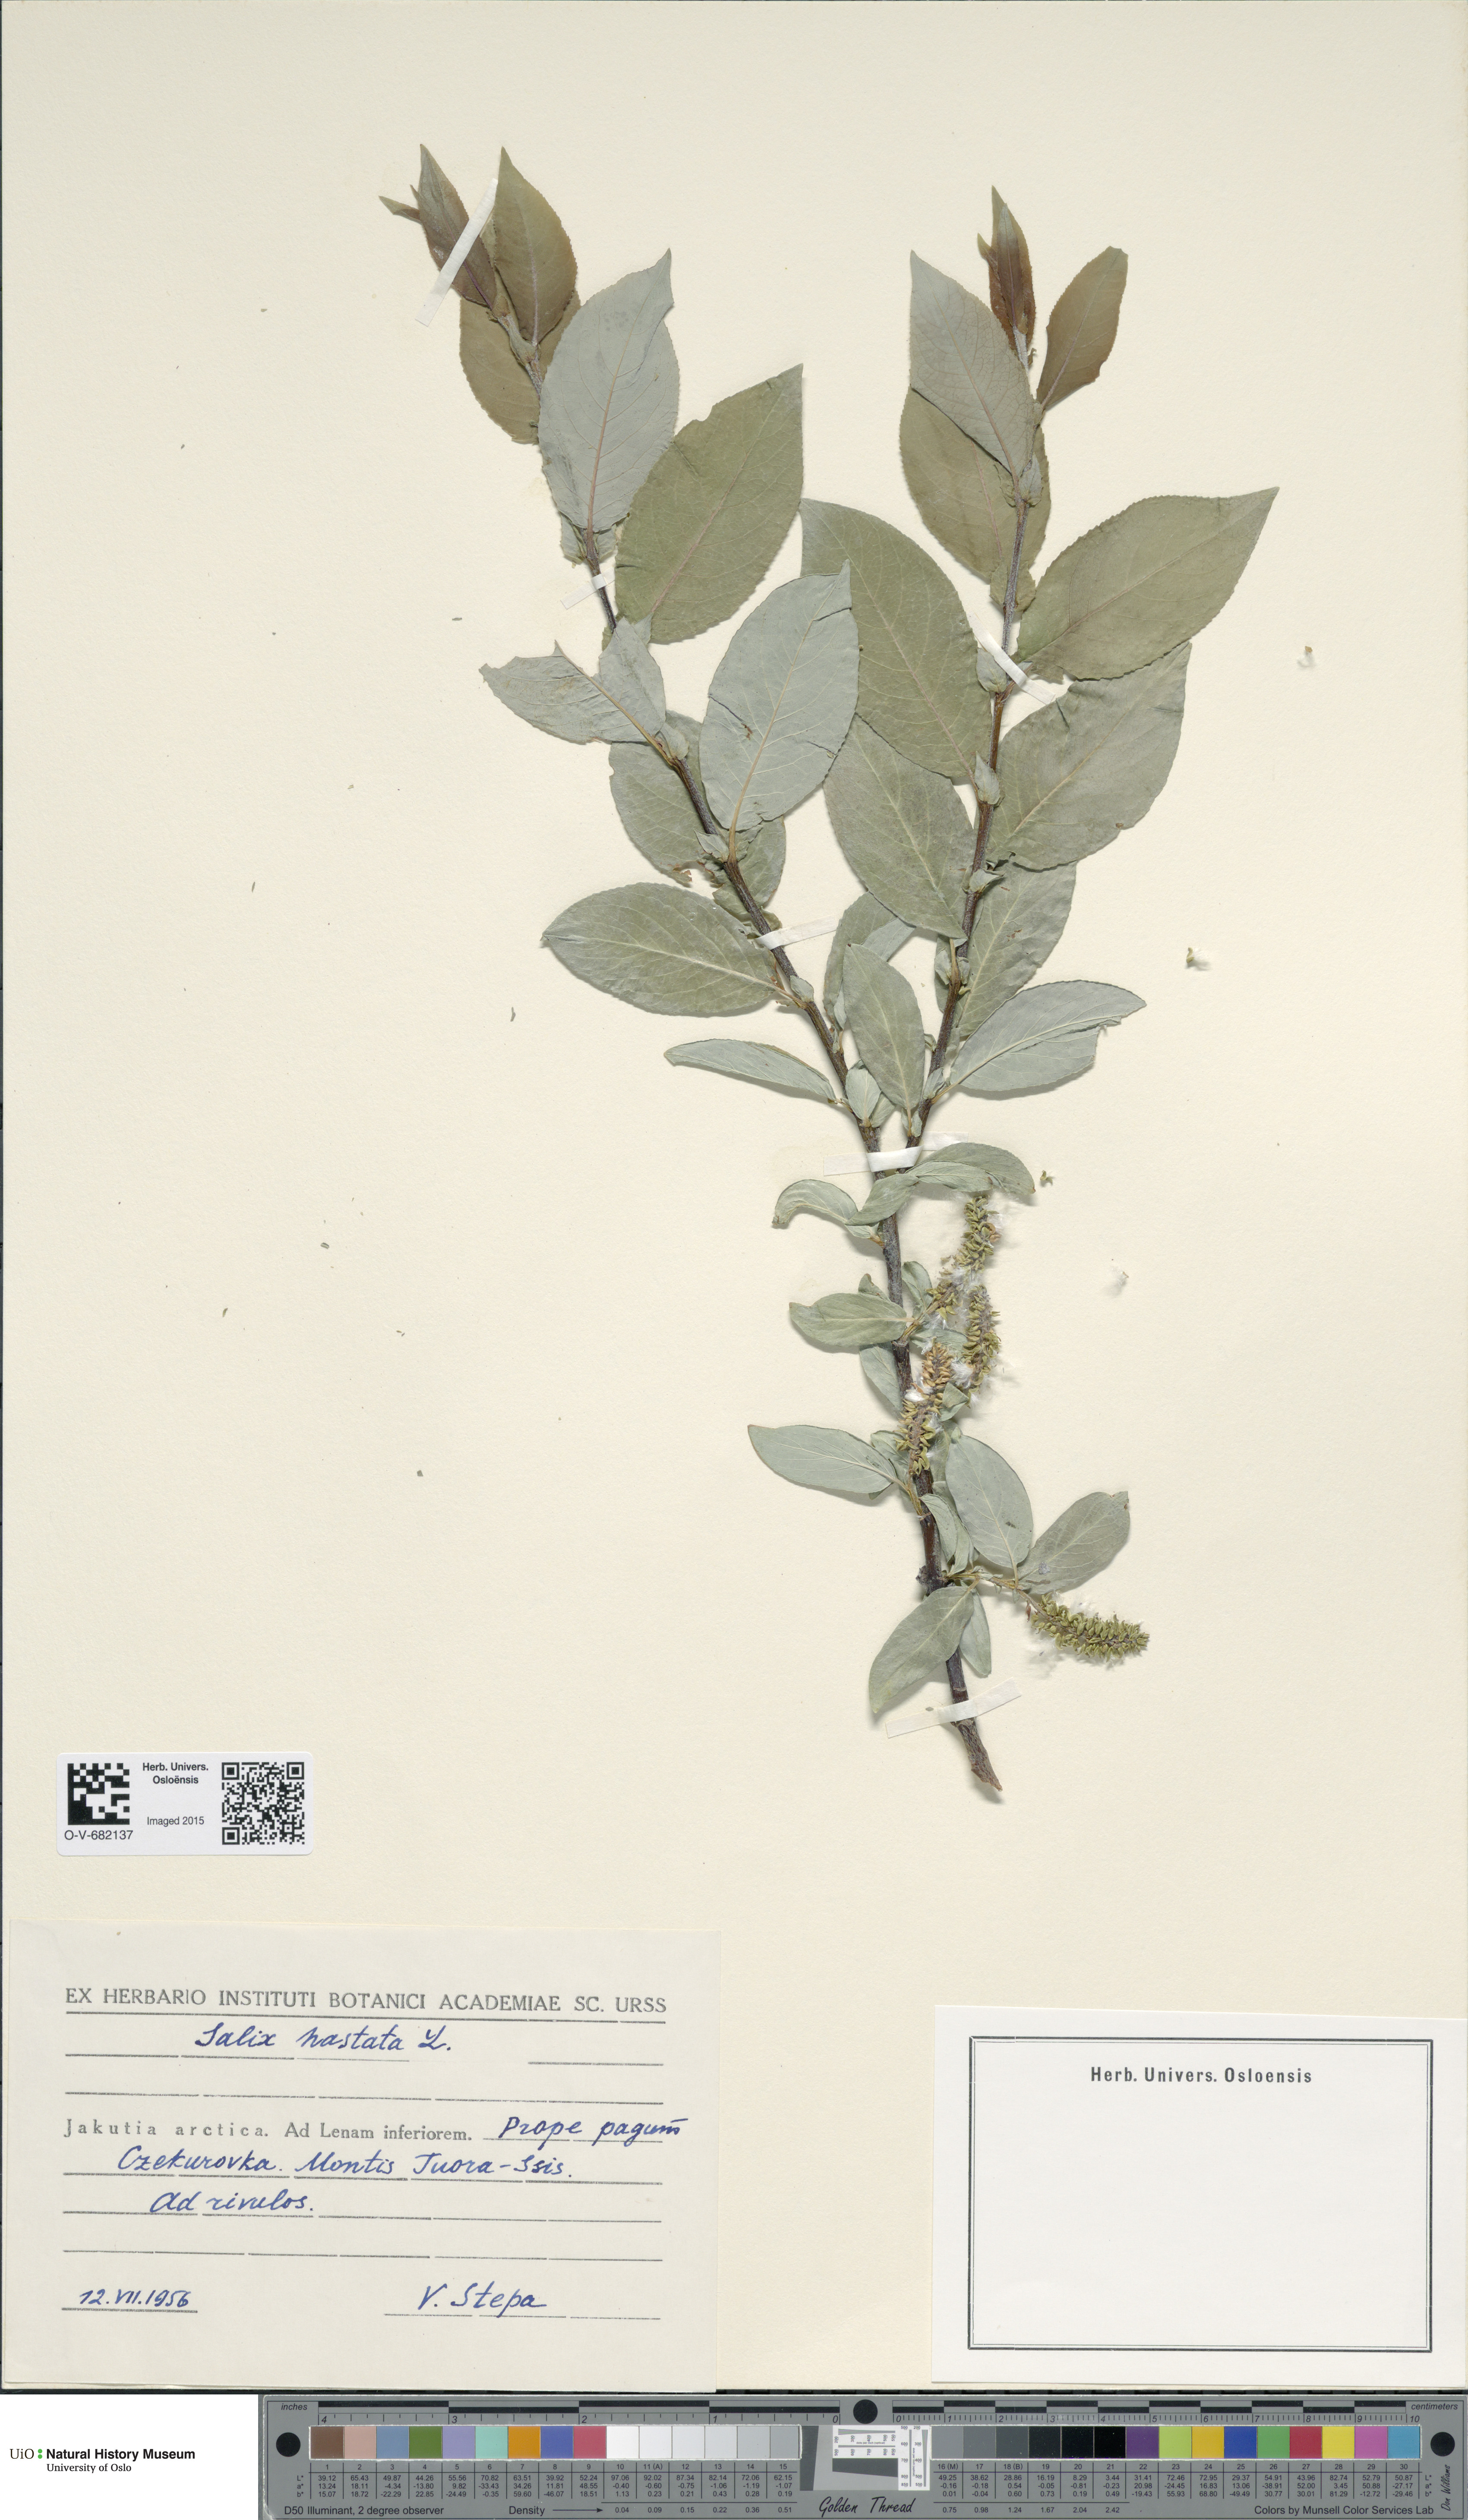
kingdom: Plantae
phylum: Tracheophyta
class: Magnoliopsida
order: Malpighiales
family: Salicaceae
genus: Salix
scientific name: Salix hastata
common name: Halberd willow
